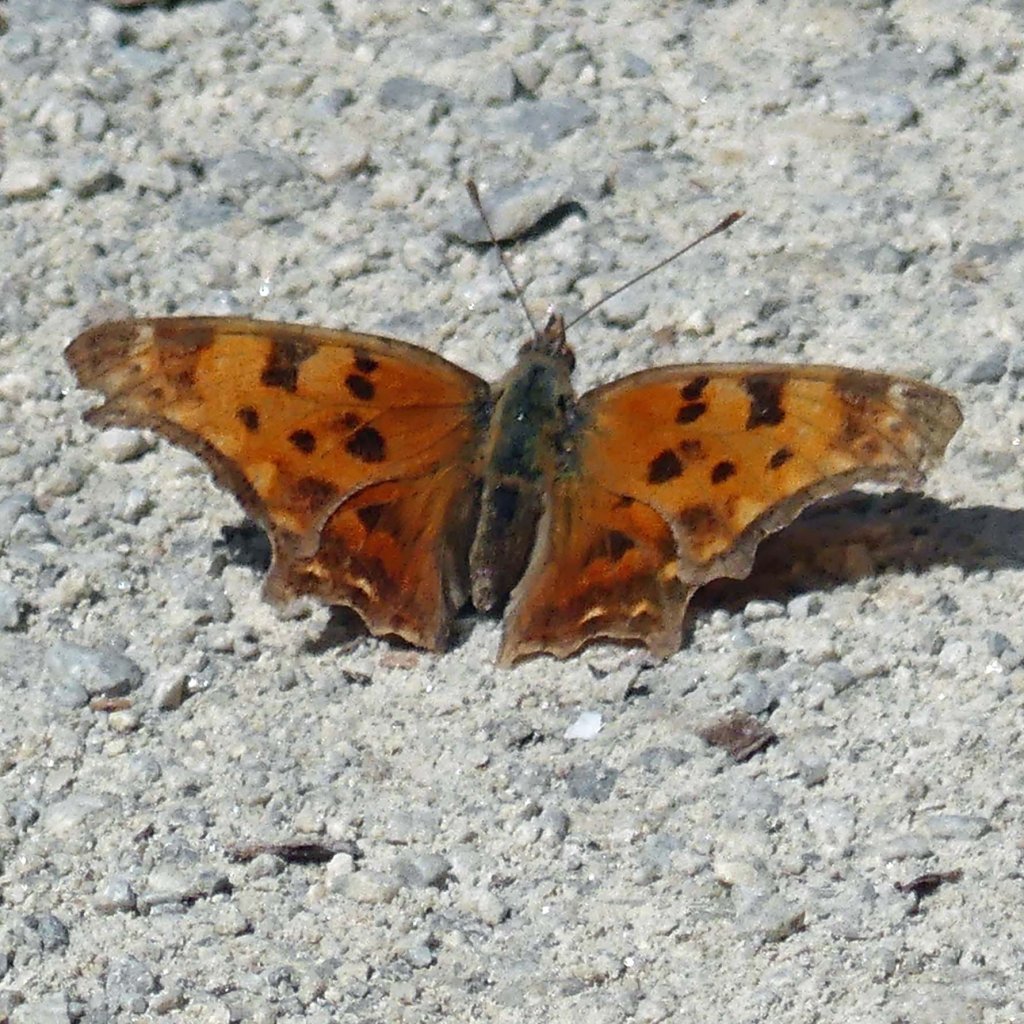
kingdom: Animalia
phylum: Arthropoda
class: Insecta
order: Lepidoptera
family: Nymphalidae
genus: Polygonia
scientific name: Polygonia comma
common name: Eastern Comma
